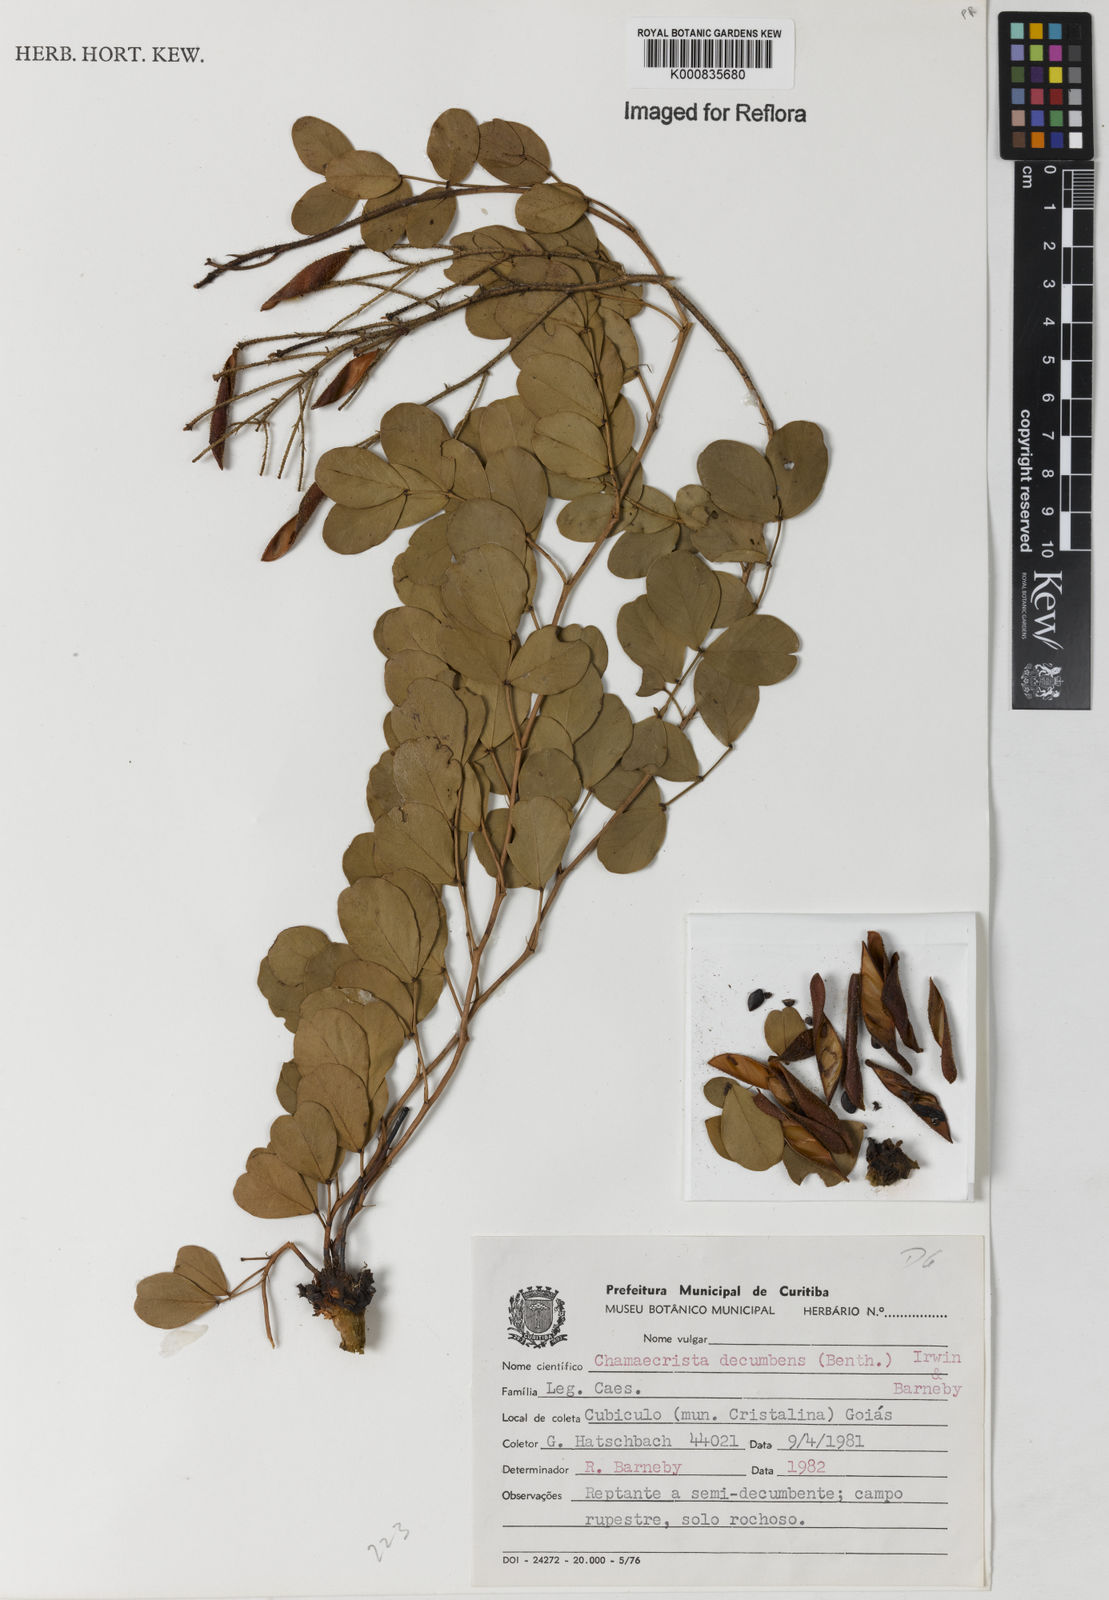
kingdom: Plantae
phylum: Tracheophyta
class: Magnoliopsida
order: Fabales
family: Fabaceae
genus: Chamaecrista
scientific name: Chamaecrista decumbens
